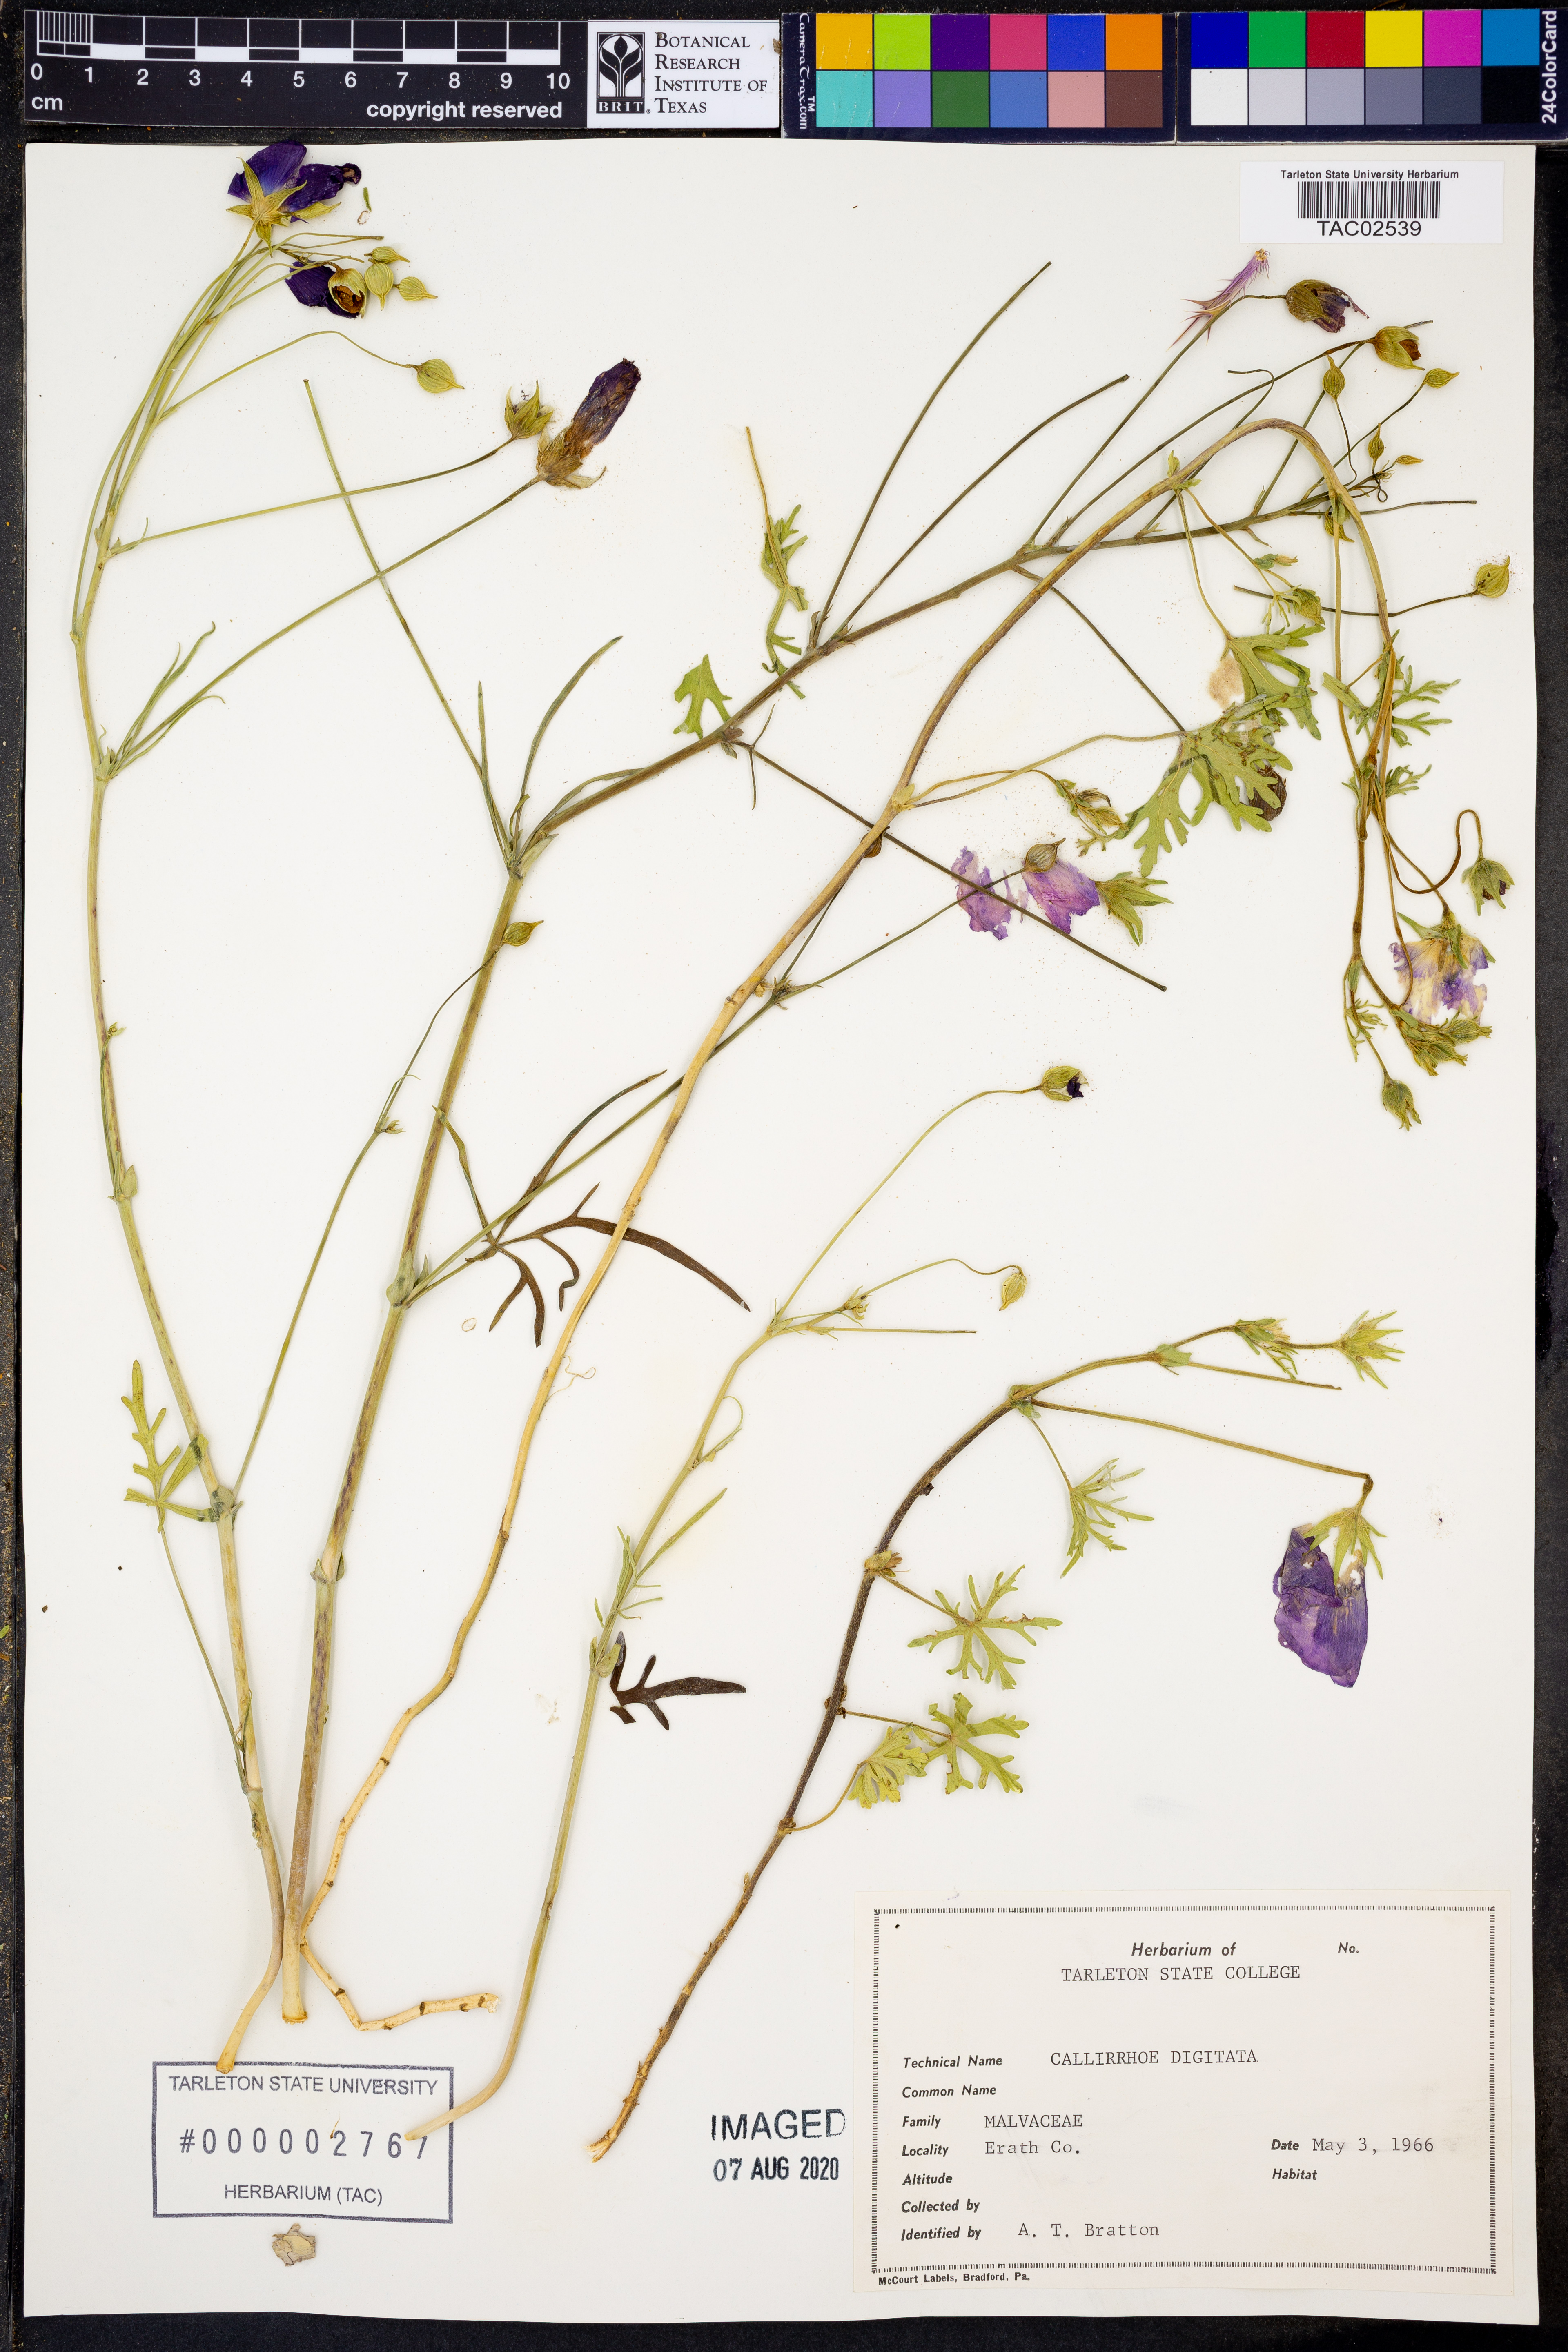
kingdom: Plantae
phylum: Tracheophyta
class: Magnoliopsida
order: Malvales
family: Malvaceae
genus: Callirhoe
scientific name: Callirhoe digitata
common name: Finger poppy-mallow
